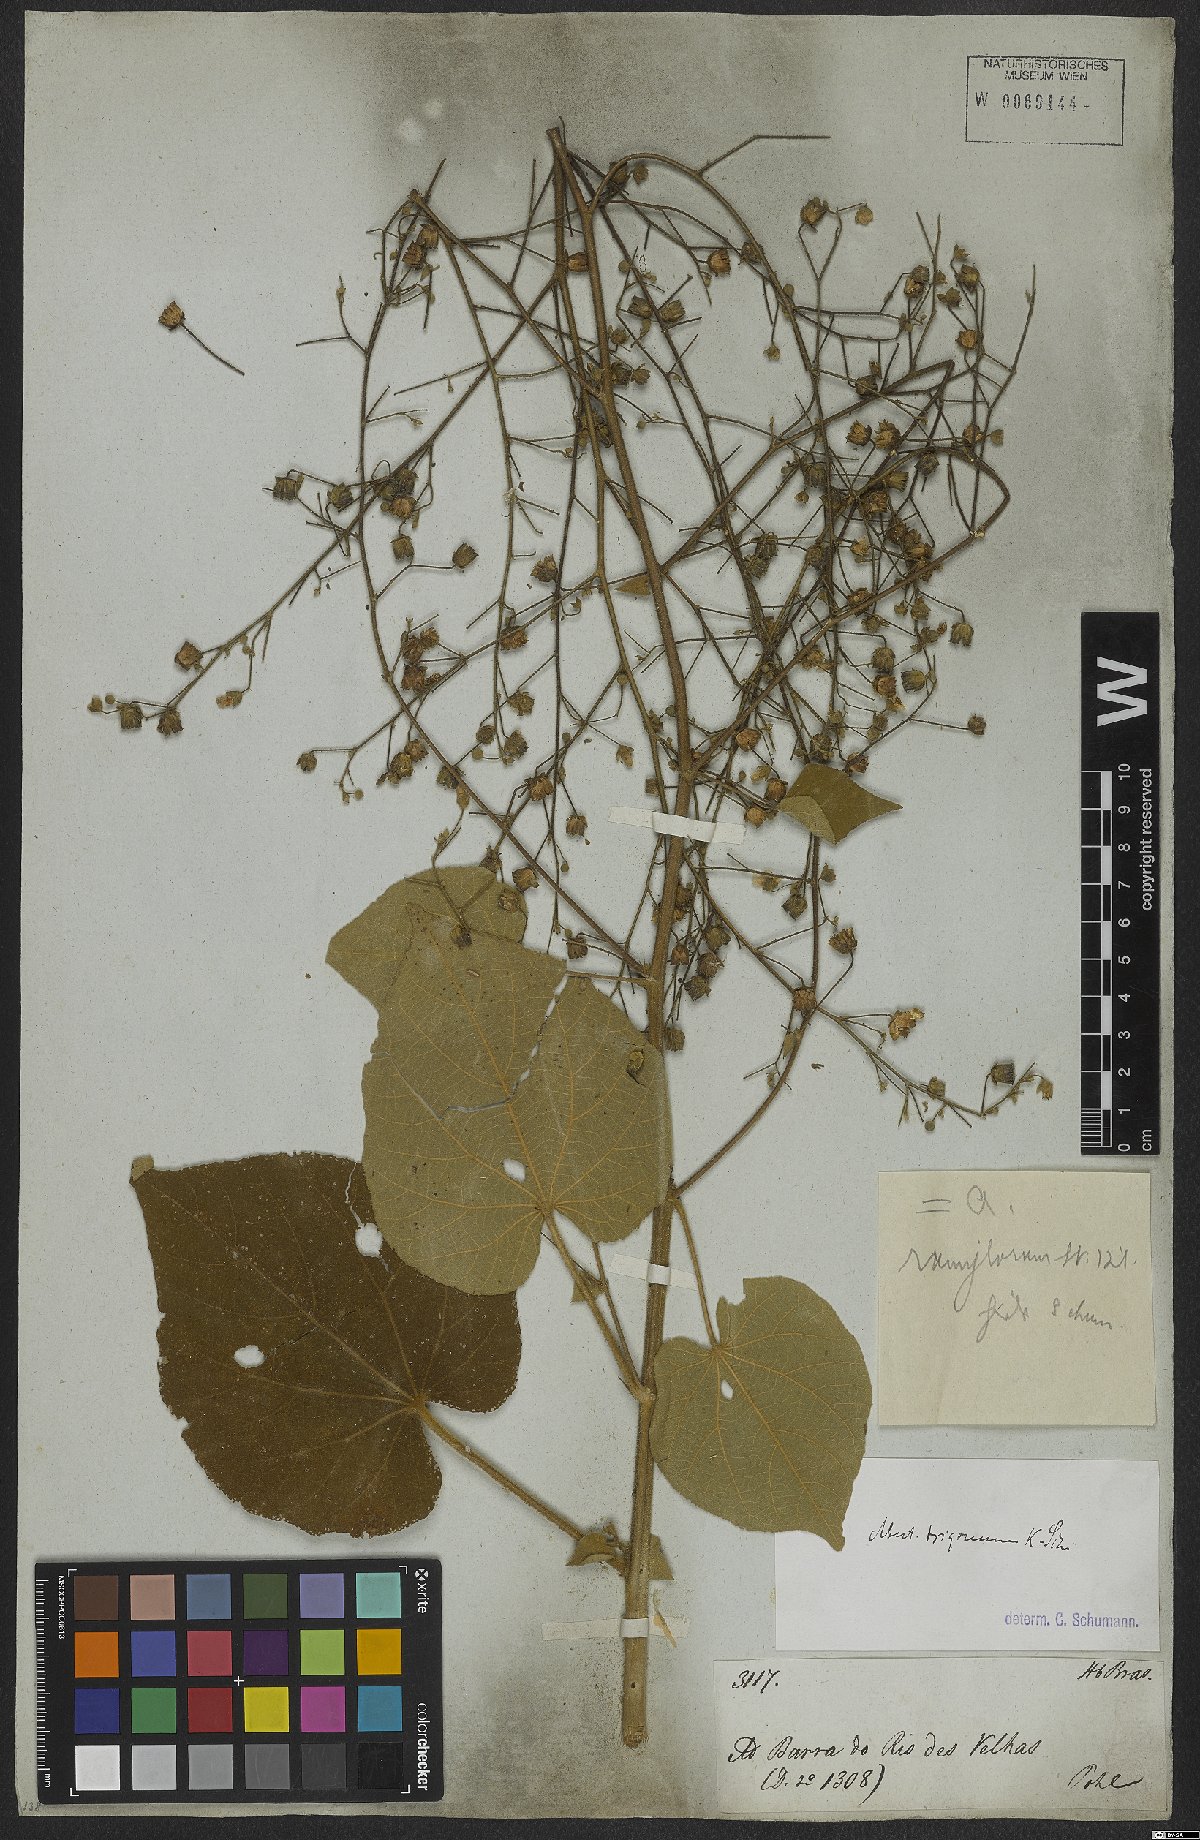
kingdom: Plantae
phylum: Tracheophyta
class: Magnoliopsida
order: Malvales
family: Malvaceae
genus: Abutilon
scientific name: Abutilon
